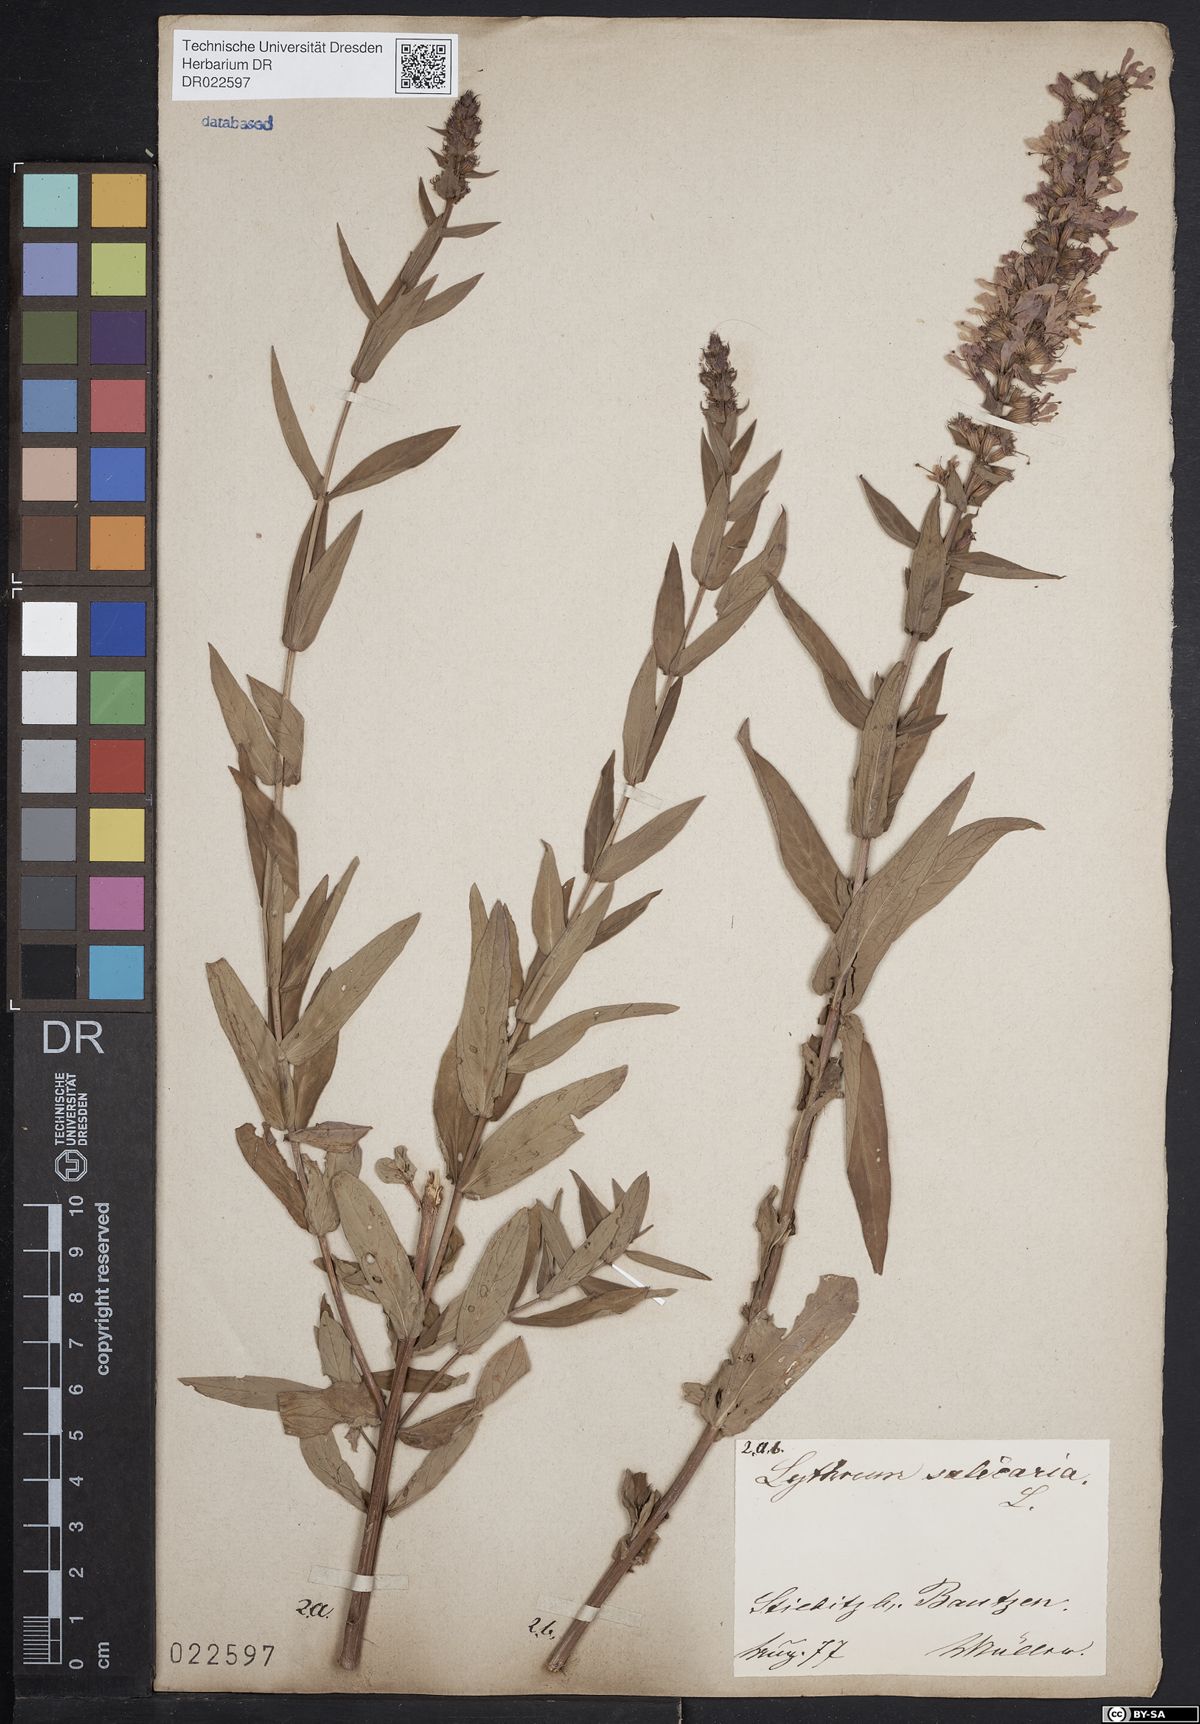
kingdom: Plantae
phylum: Tracheophyta
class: Magnoliopsida
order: Myrtales
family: Lythraceae
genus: Lythrum
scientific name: Lythrum salicaria
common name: Purple loosestrife
